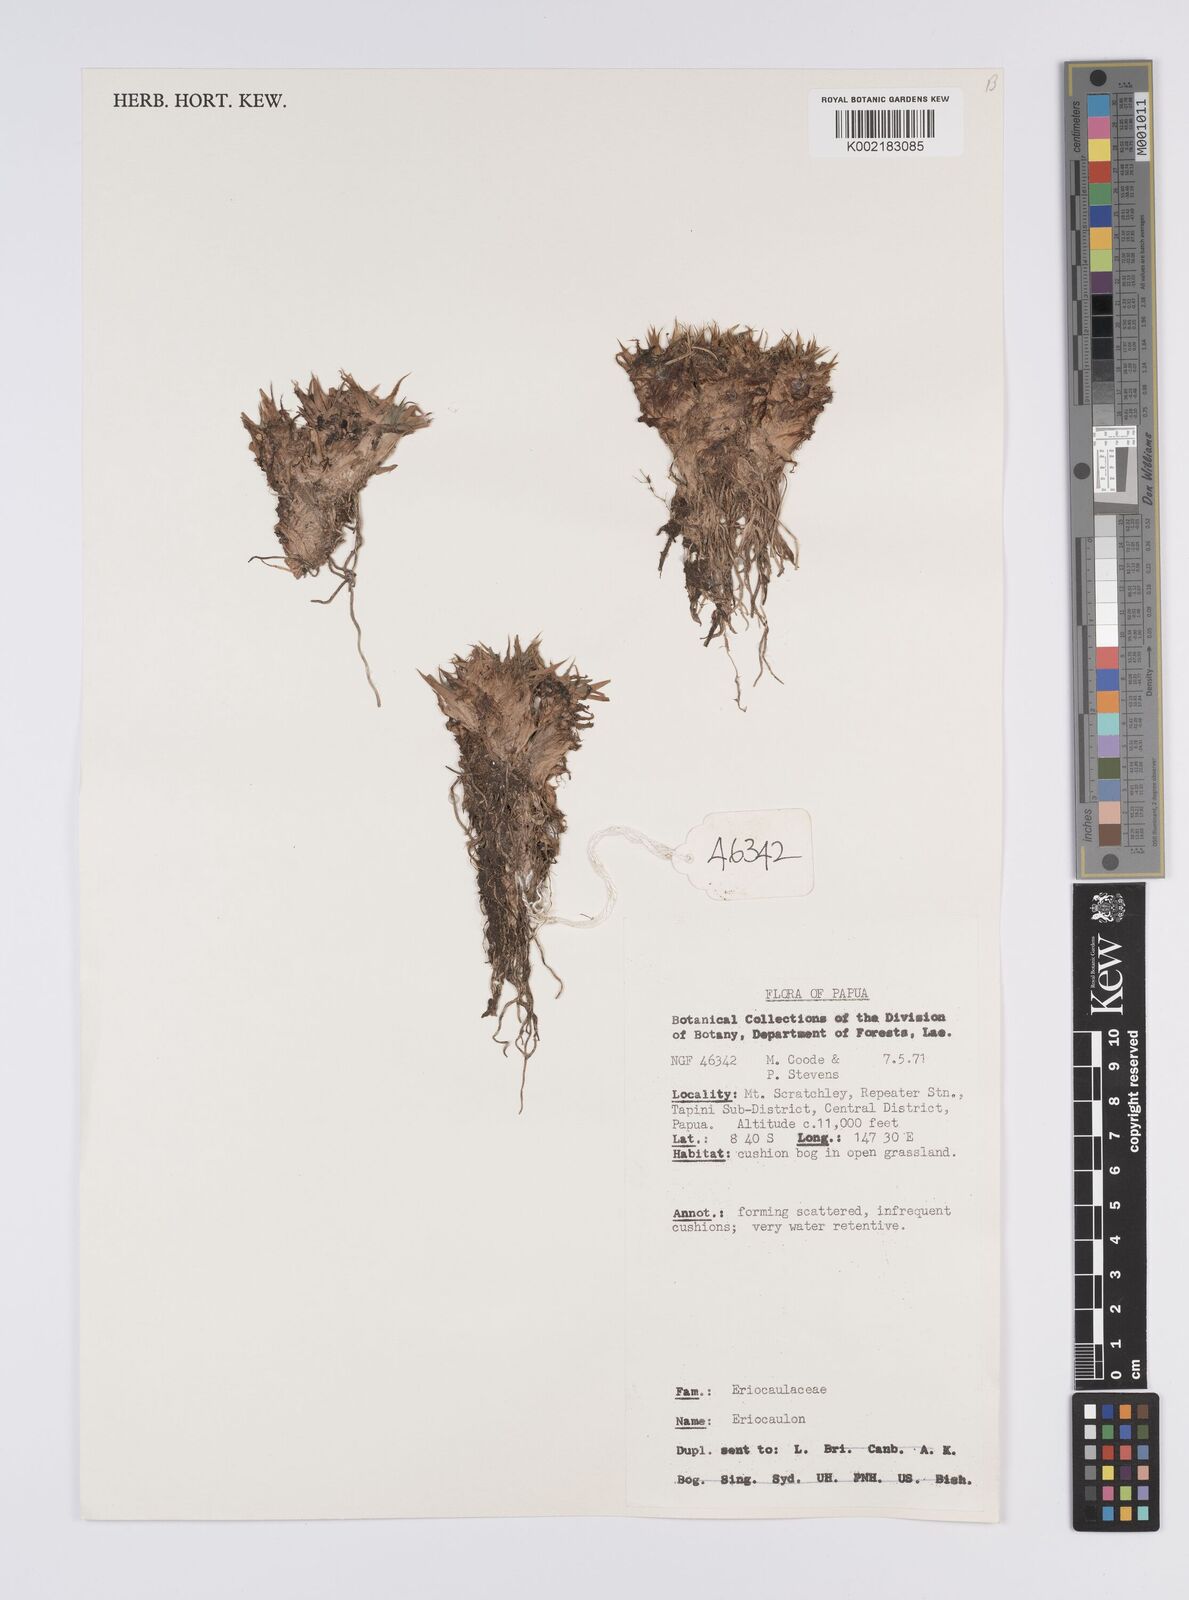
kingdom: Plantae
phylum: Tracheophyta
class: Liliopsida
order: Poales
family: Eriocaulaceae
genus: Eriocaulon
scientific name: Eriocaulon
